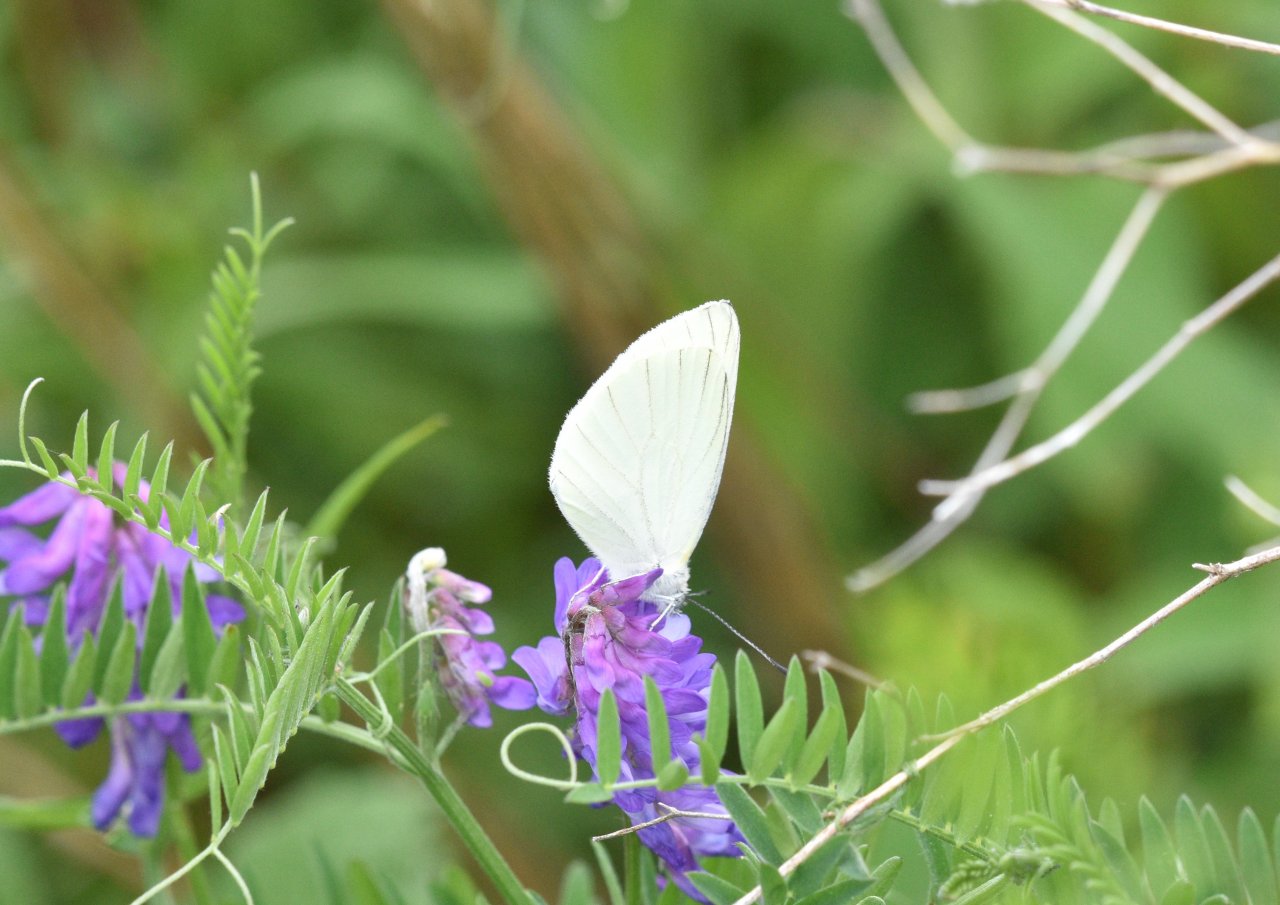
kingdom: Animalia
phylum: Arthropoda
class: Insecta
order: Lepidoptera
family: Pieridae
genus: Pieris
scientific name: Pieris oleracea
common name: Mustard White
